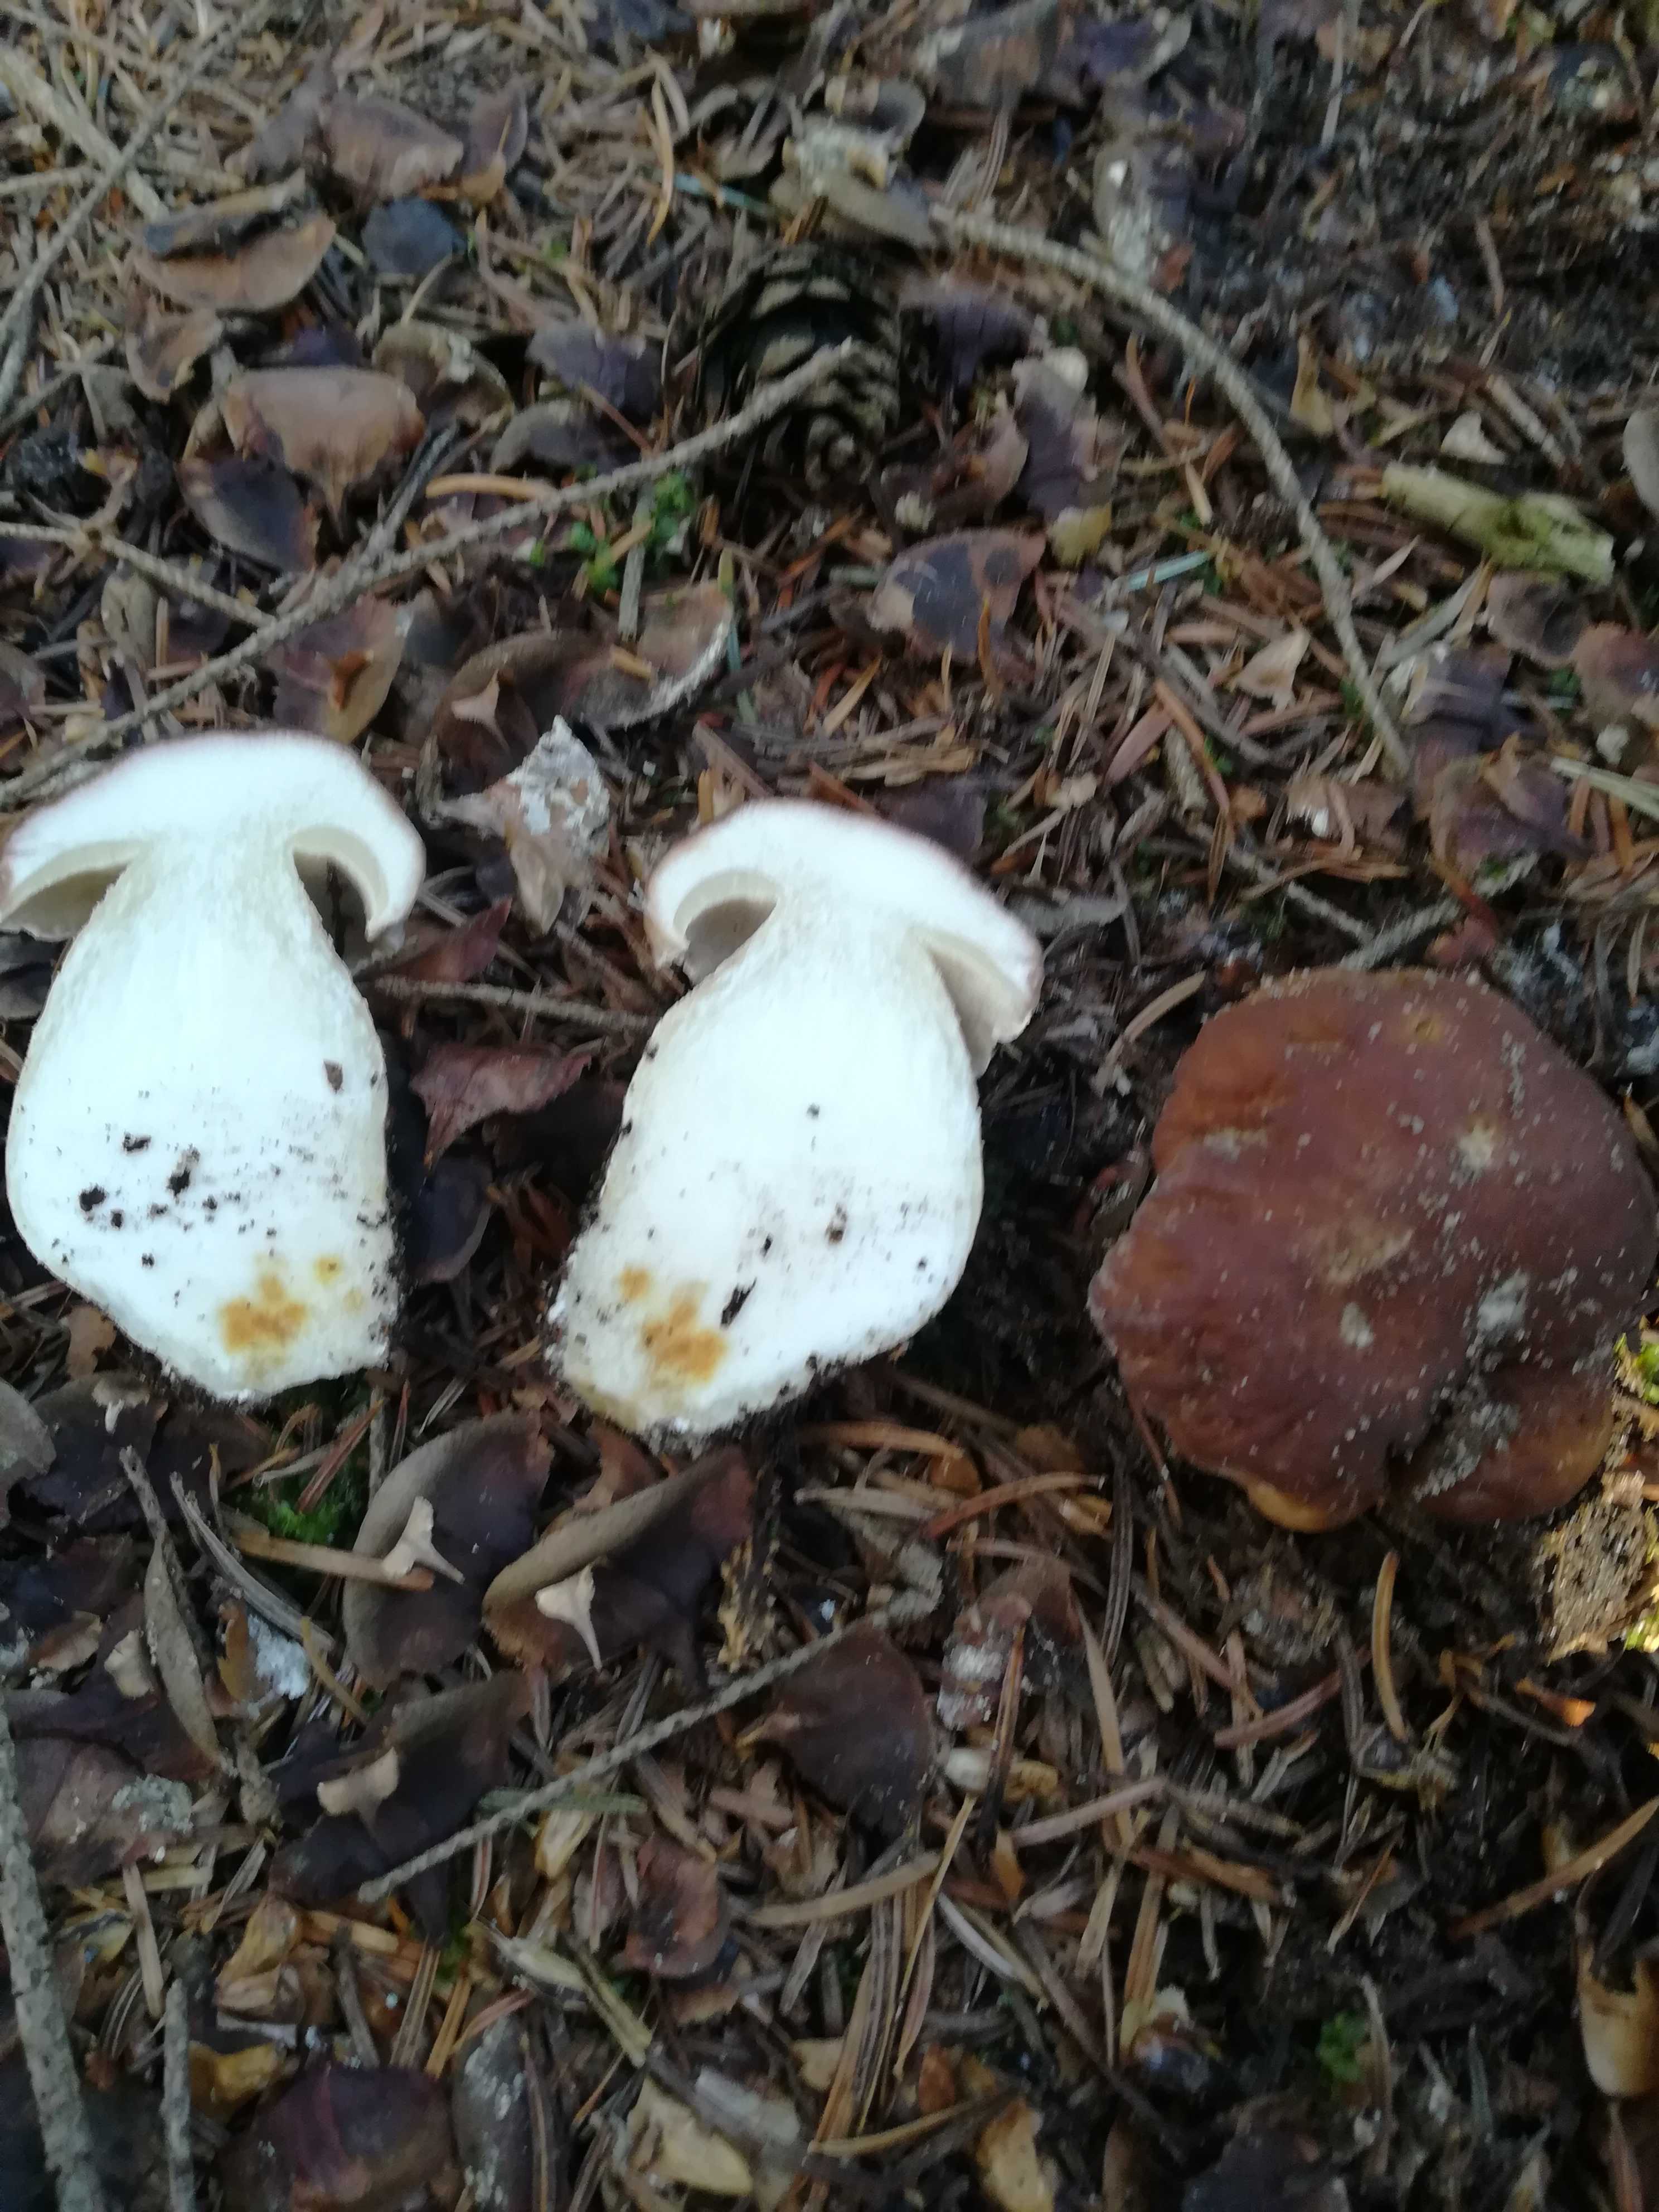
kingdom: Fungi
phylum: Basidiomycota
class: Agaricomycetes
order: Boletales
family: Boletaceae
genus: Boletus
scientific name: Boletus edulis
